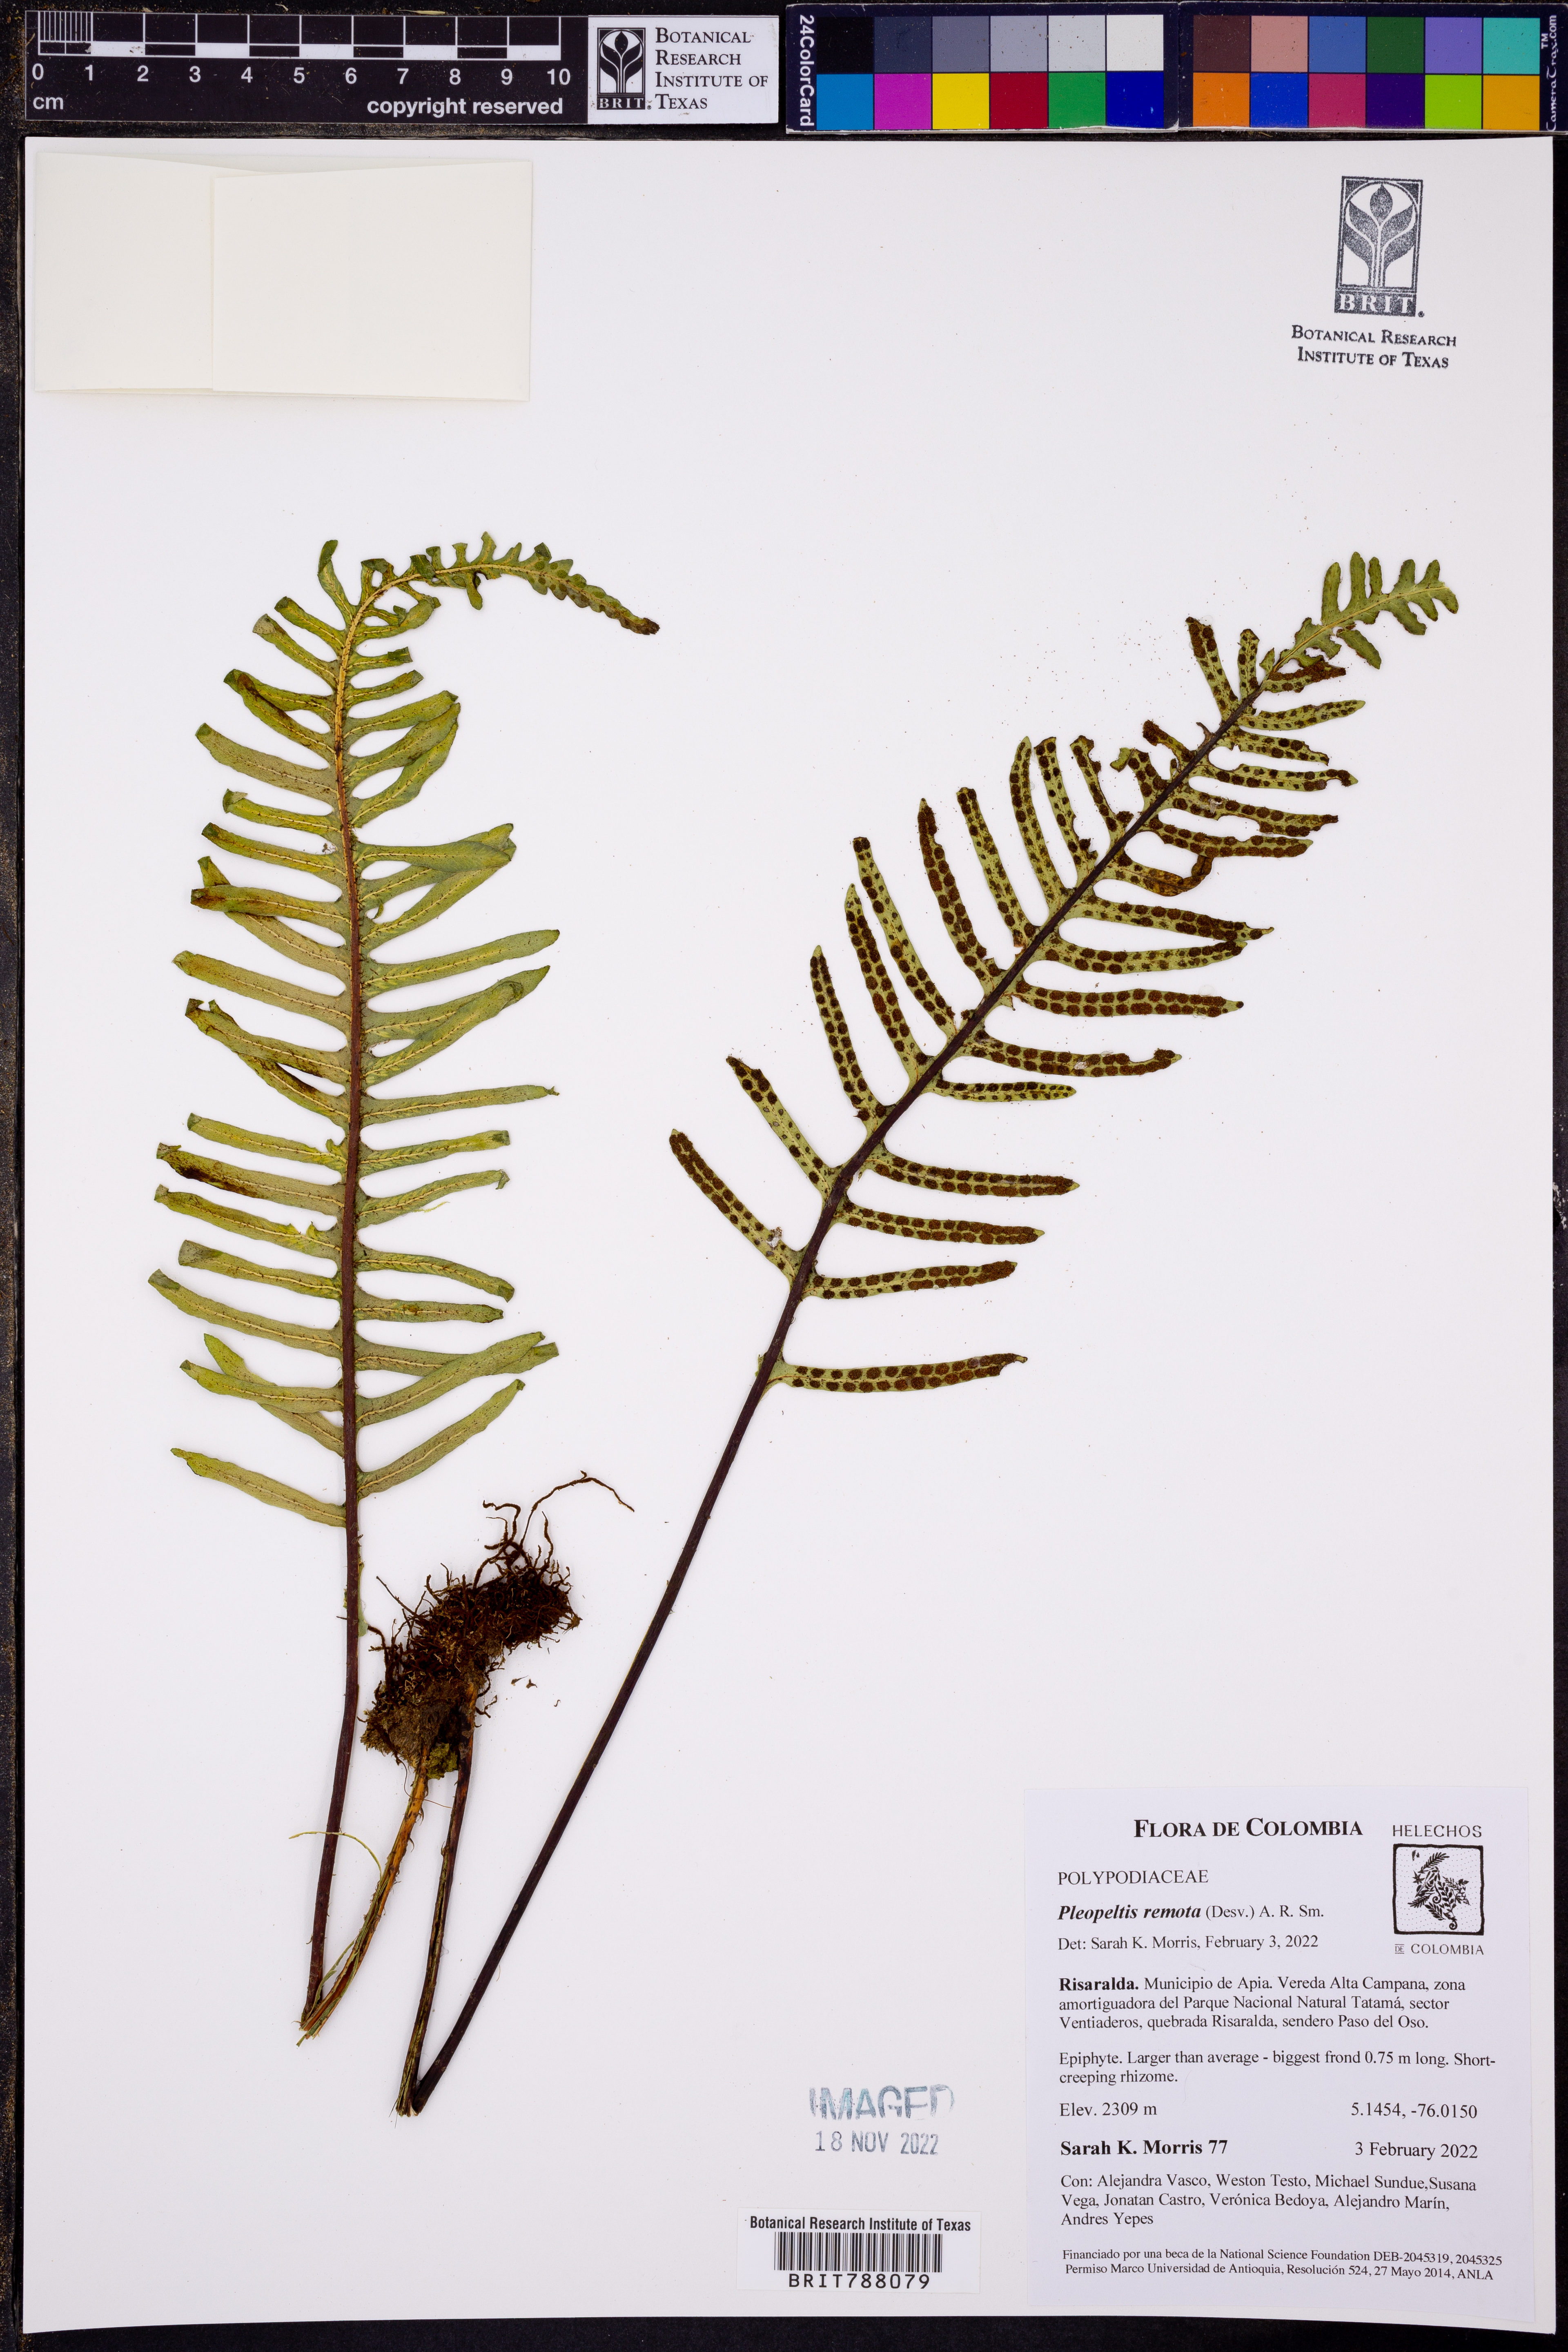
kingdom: Plantae
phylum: Tracheophyta
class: Polypodiopsida
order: Polypodiales
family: Polypodiaceae
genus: Pleopeltis
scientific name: Pleopeltis remota
